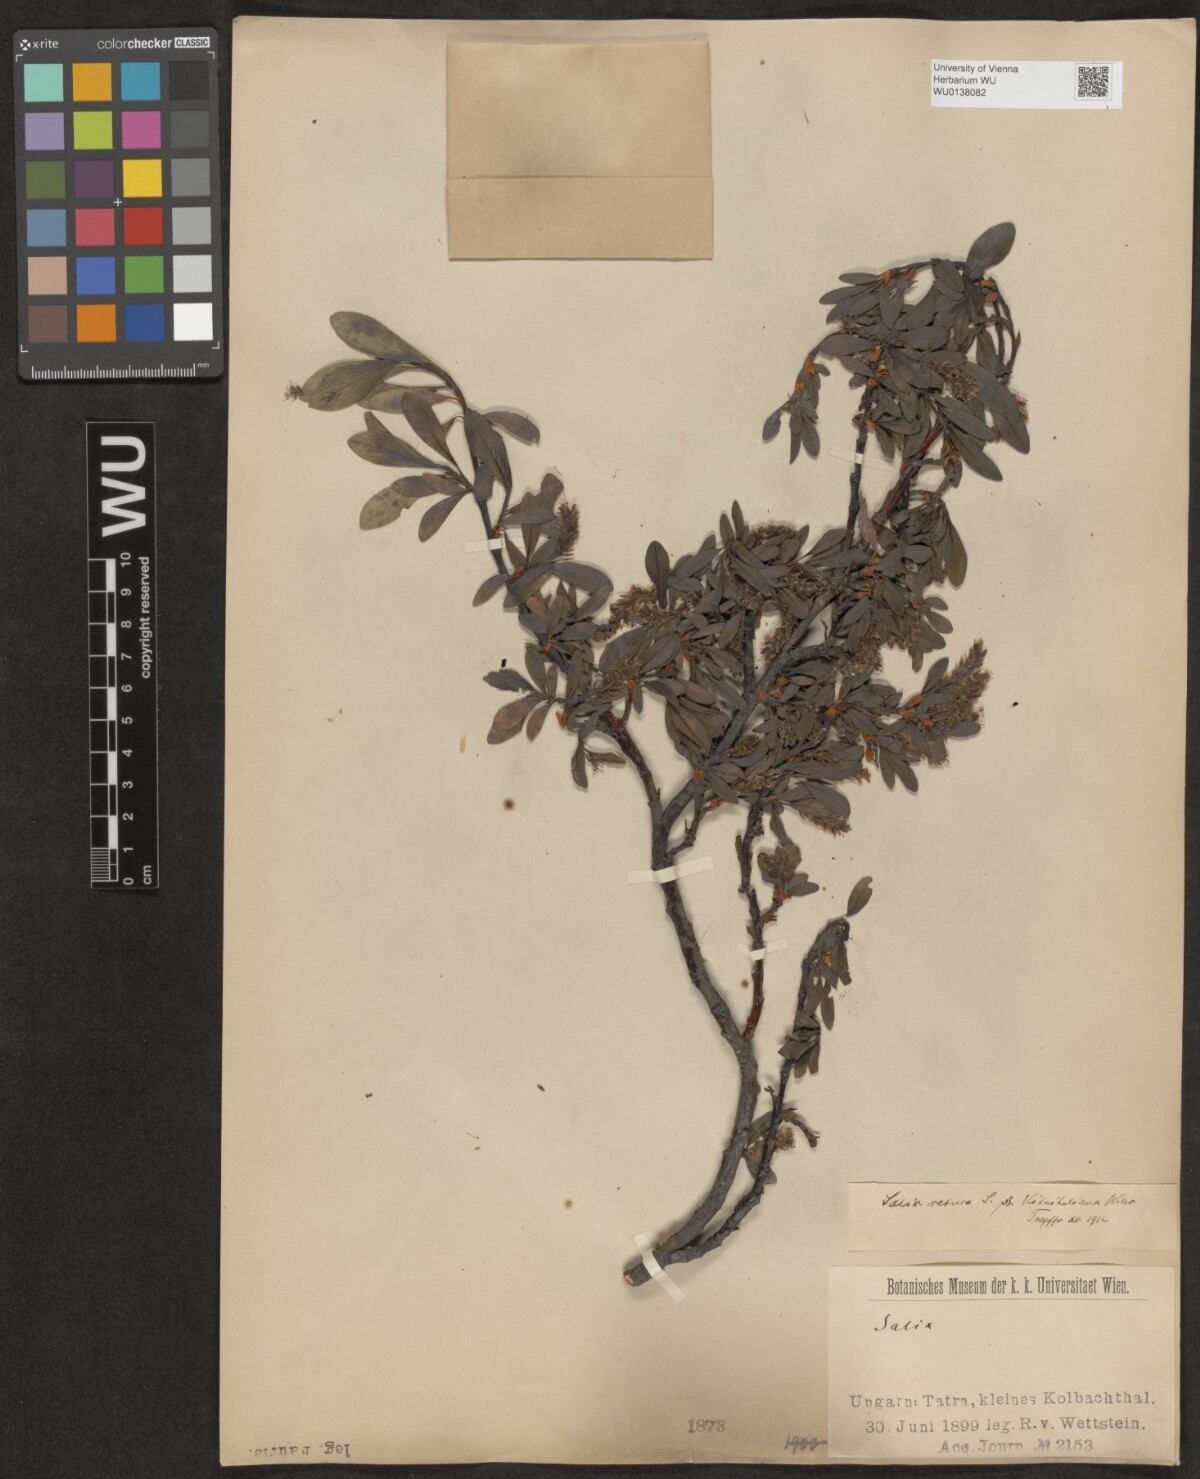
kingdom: Plantae
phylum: Tracheophyta
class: Magnoliopsida
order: Malpighiales
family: Salicaceae
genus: Salix
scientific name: Salix retusa
